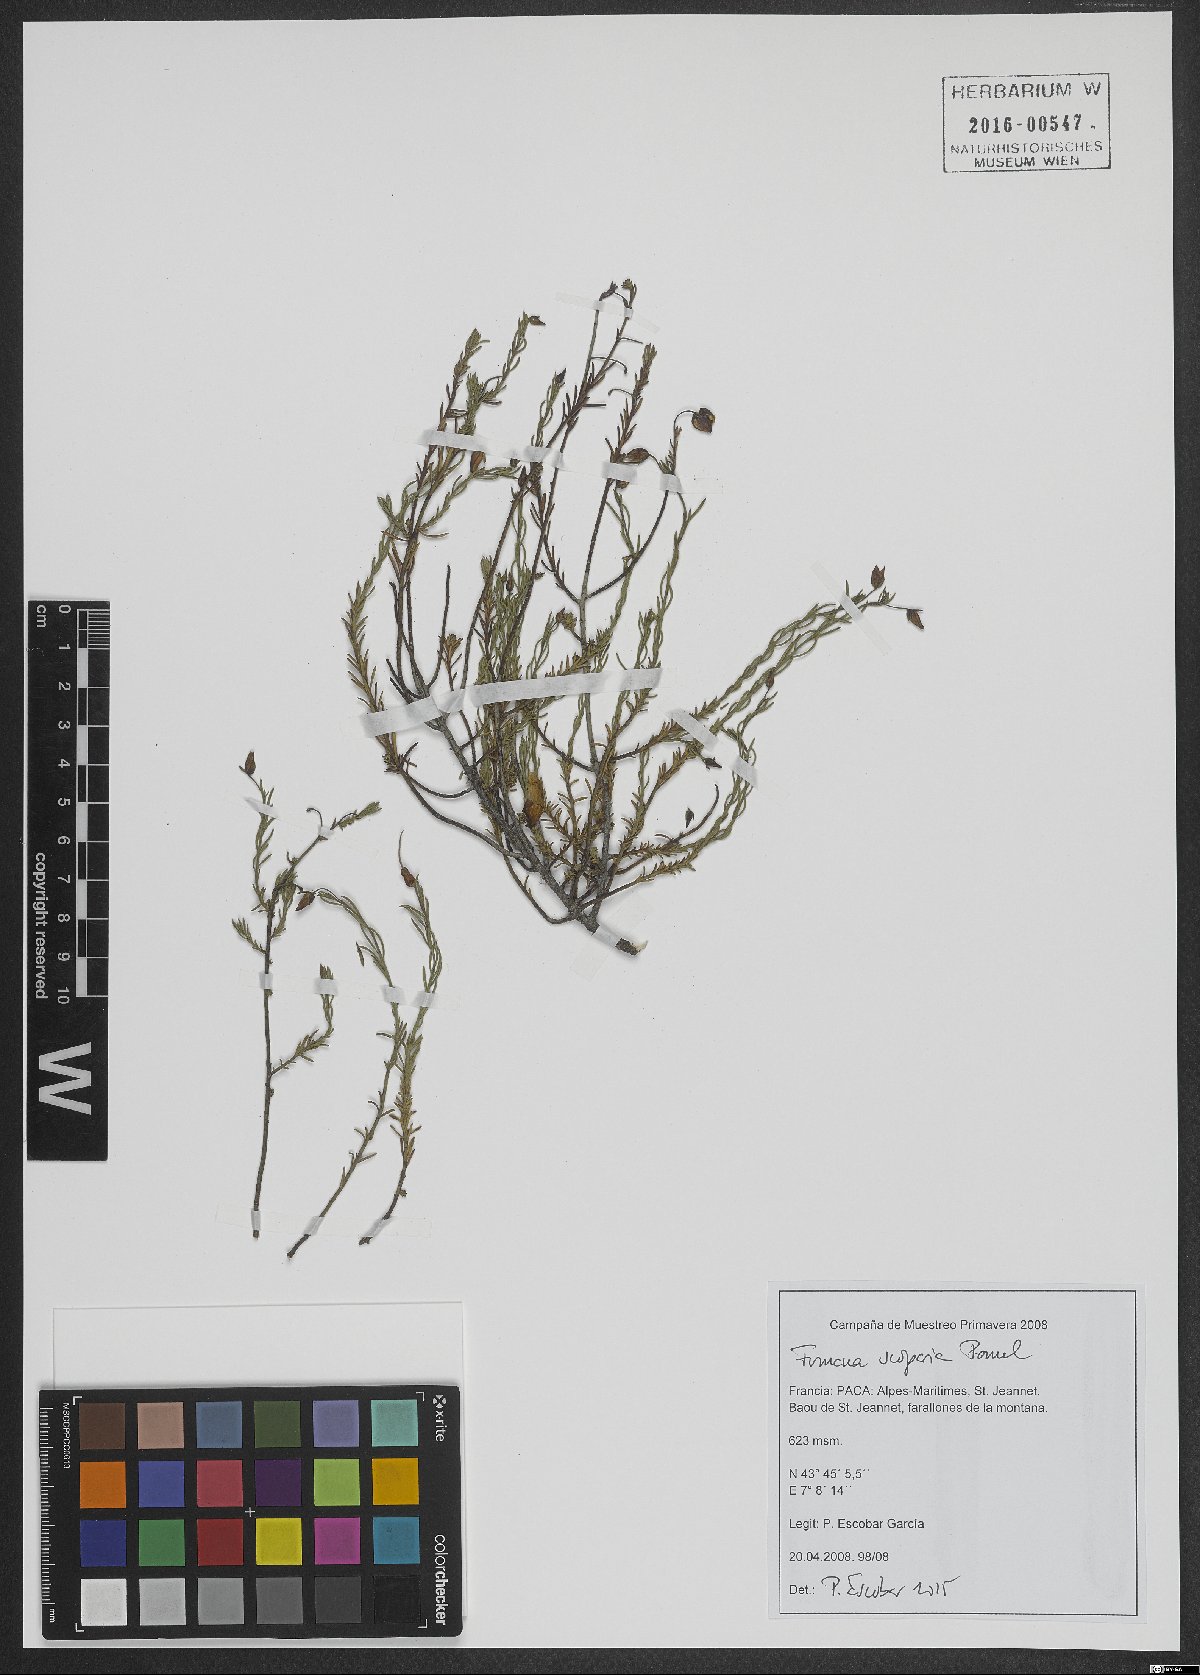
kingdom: Plantae
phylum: Tracheophyta
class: Magnoliopsida
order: Malvales
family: Cistaceae
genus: Fumana
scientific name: Fumana scoparia
